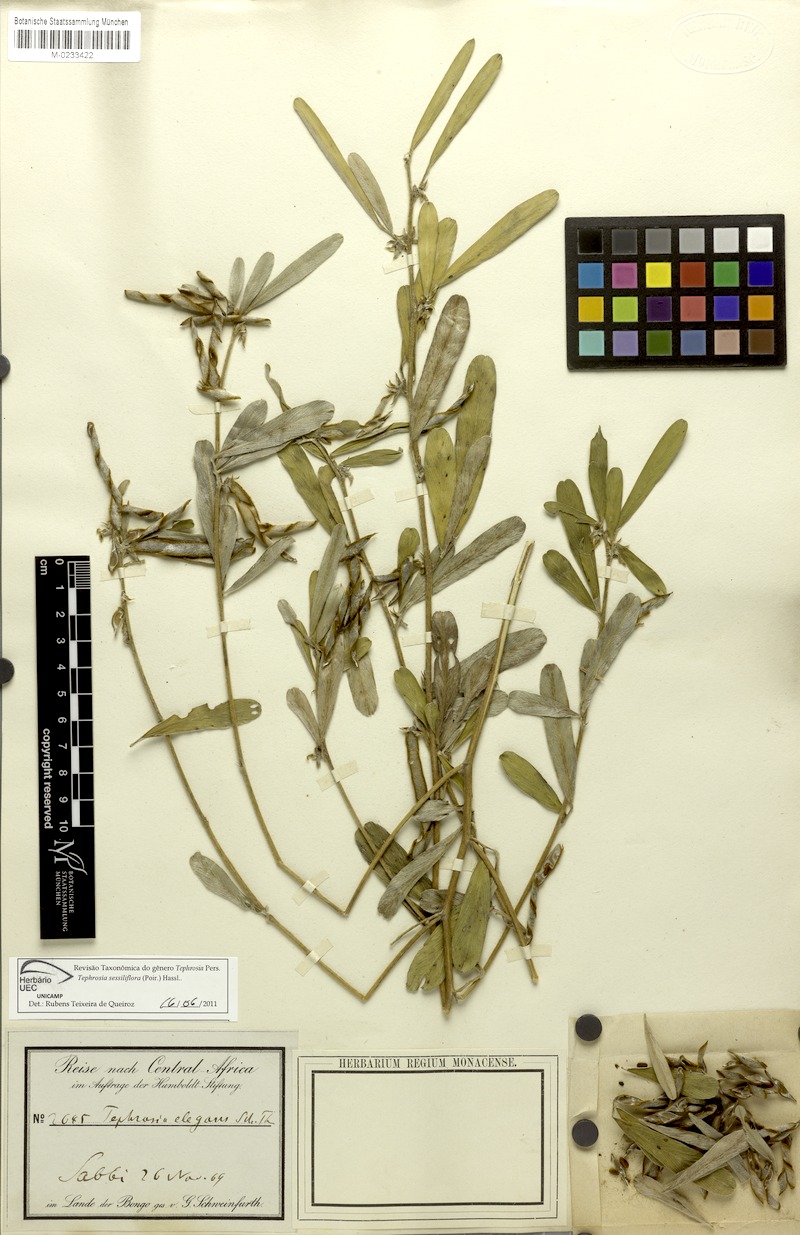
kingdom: Plantae
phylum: Tracheophyta
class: Magnoliopsida
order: Fabales
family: Fabaceae
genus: Tephrosia
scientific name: Tephrosia sessiliflora
